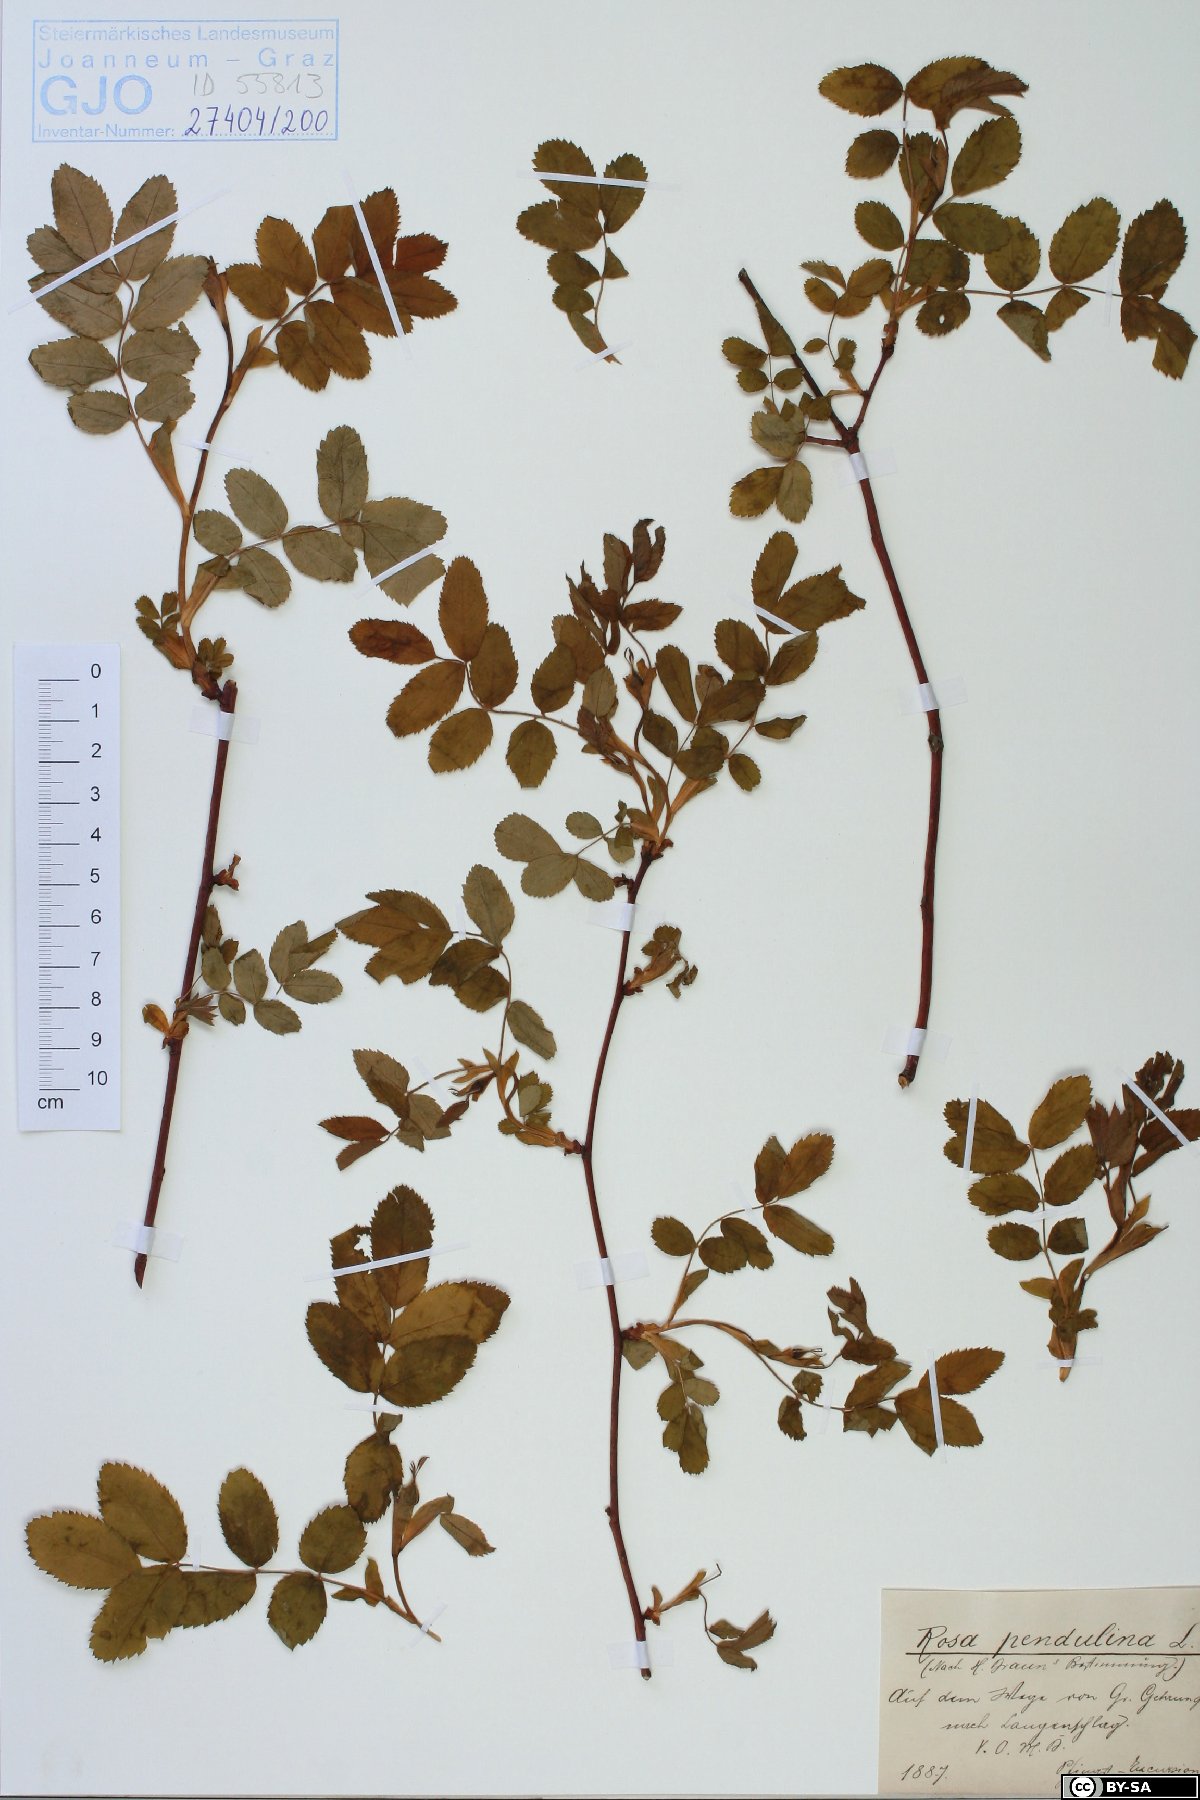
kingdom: Plantae
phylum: Tracheophyta
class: Magnoliopsida
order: Rosales
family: Rosaceae
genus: Rosa
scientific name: Rosa pendulina
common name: Alpine rose
